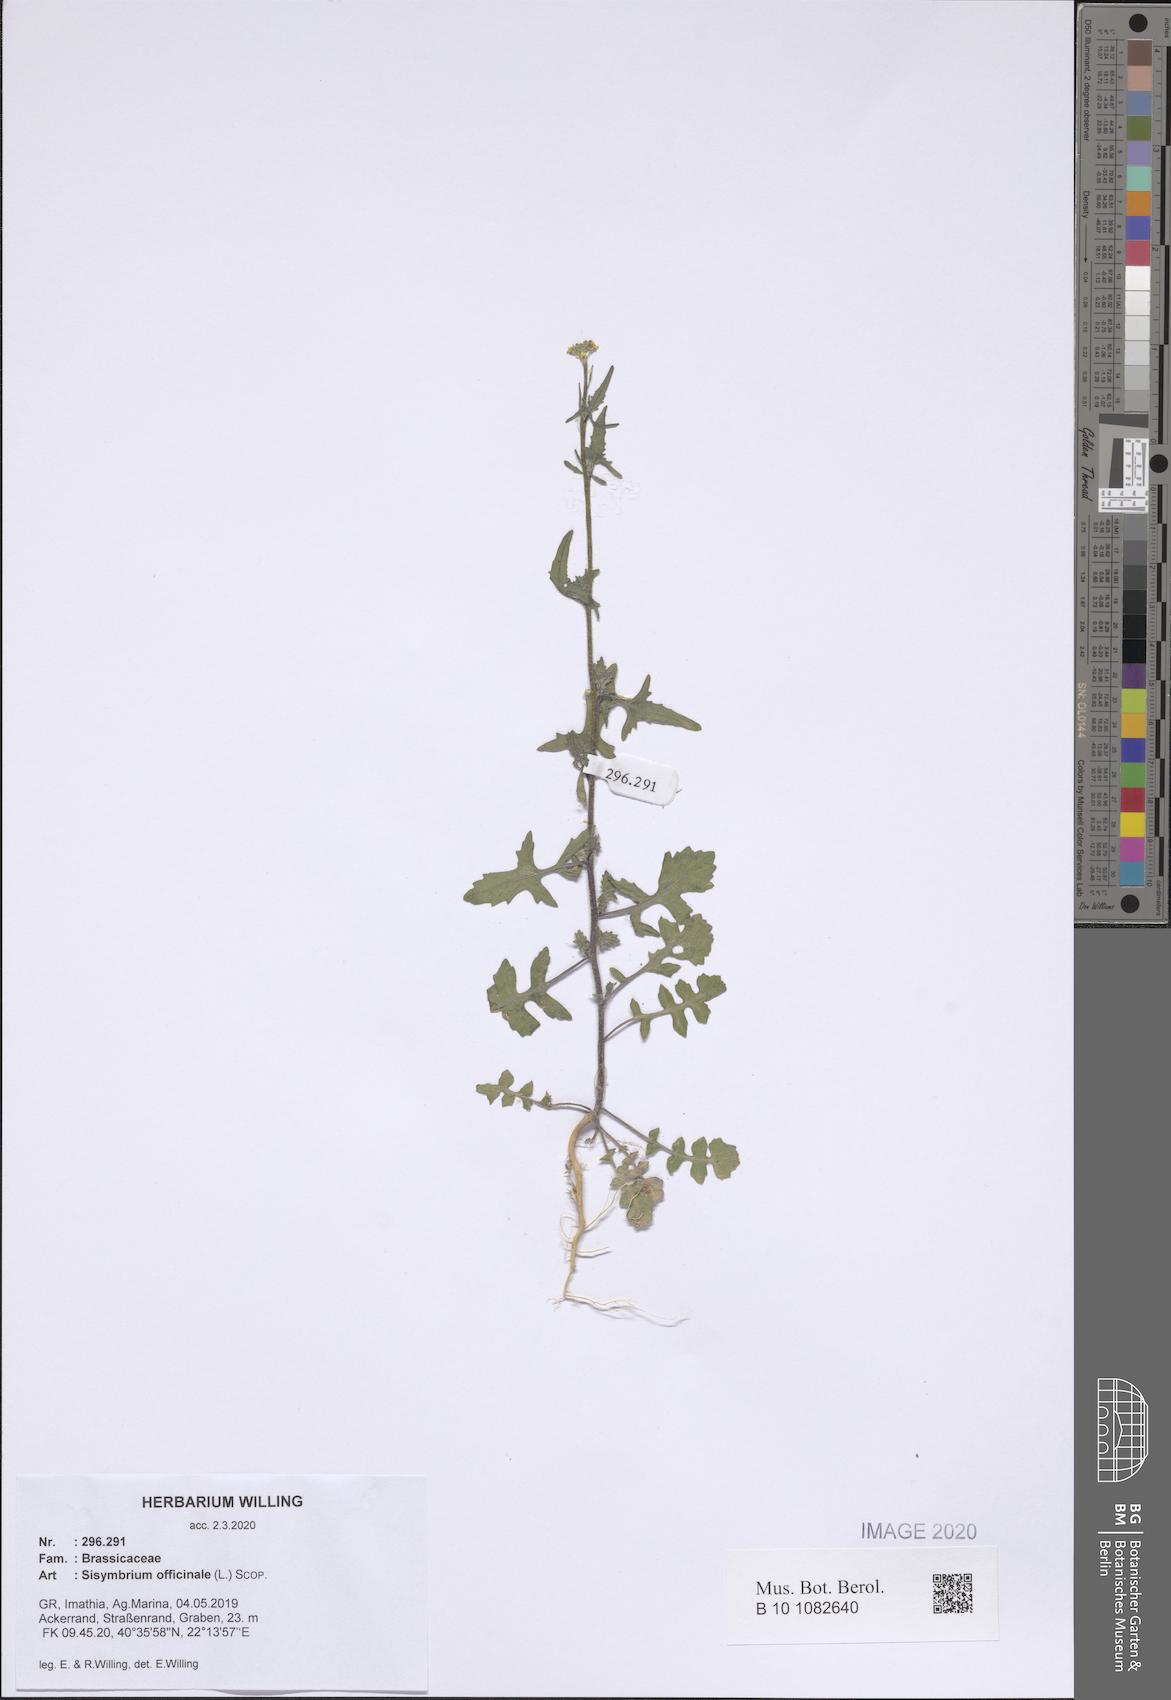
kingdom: Plantae
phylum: Tracheophyta
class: Magnoliopsida
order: Brassicales
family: Brassicaceae
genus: Sisymbrium
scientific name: Sisymbrium officinale
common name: Hedge mustard
